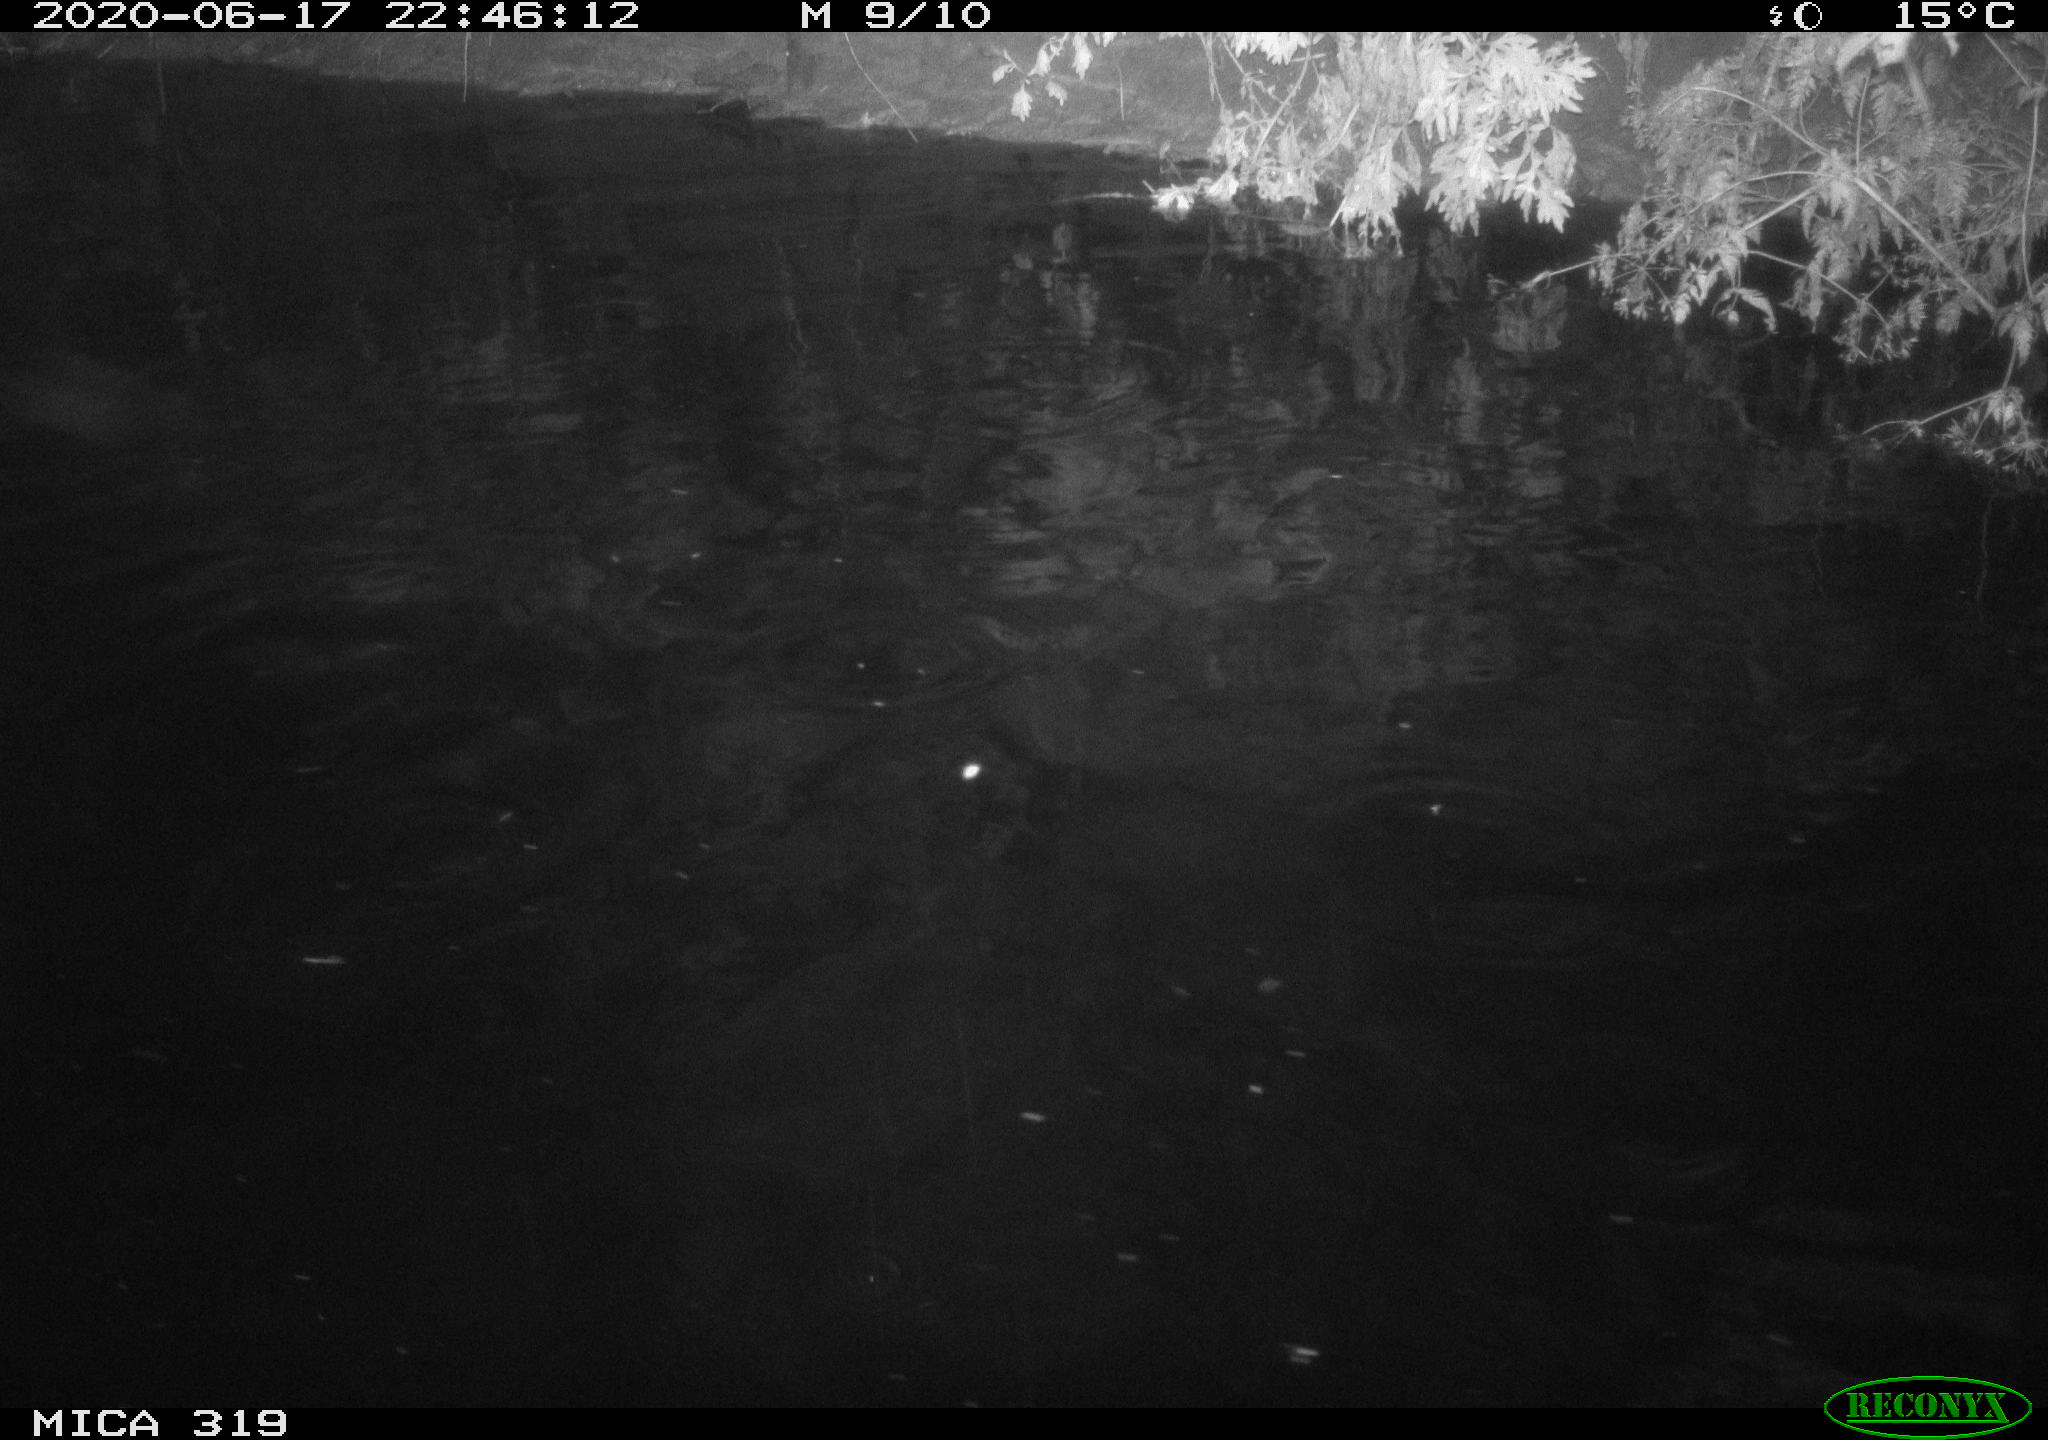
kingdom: Animalia
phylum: Chordata
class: Aves
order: Anseriformes
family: Anatidae
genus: Anas
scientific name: Anas platyrhynchos
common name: Mallard
